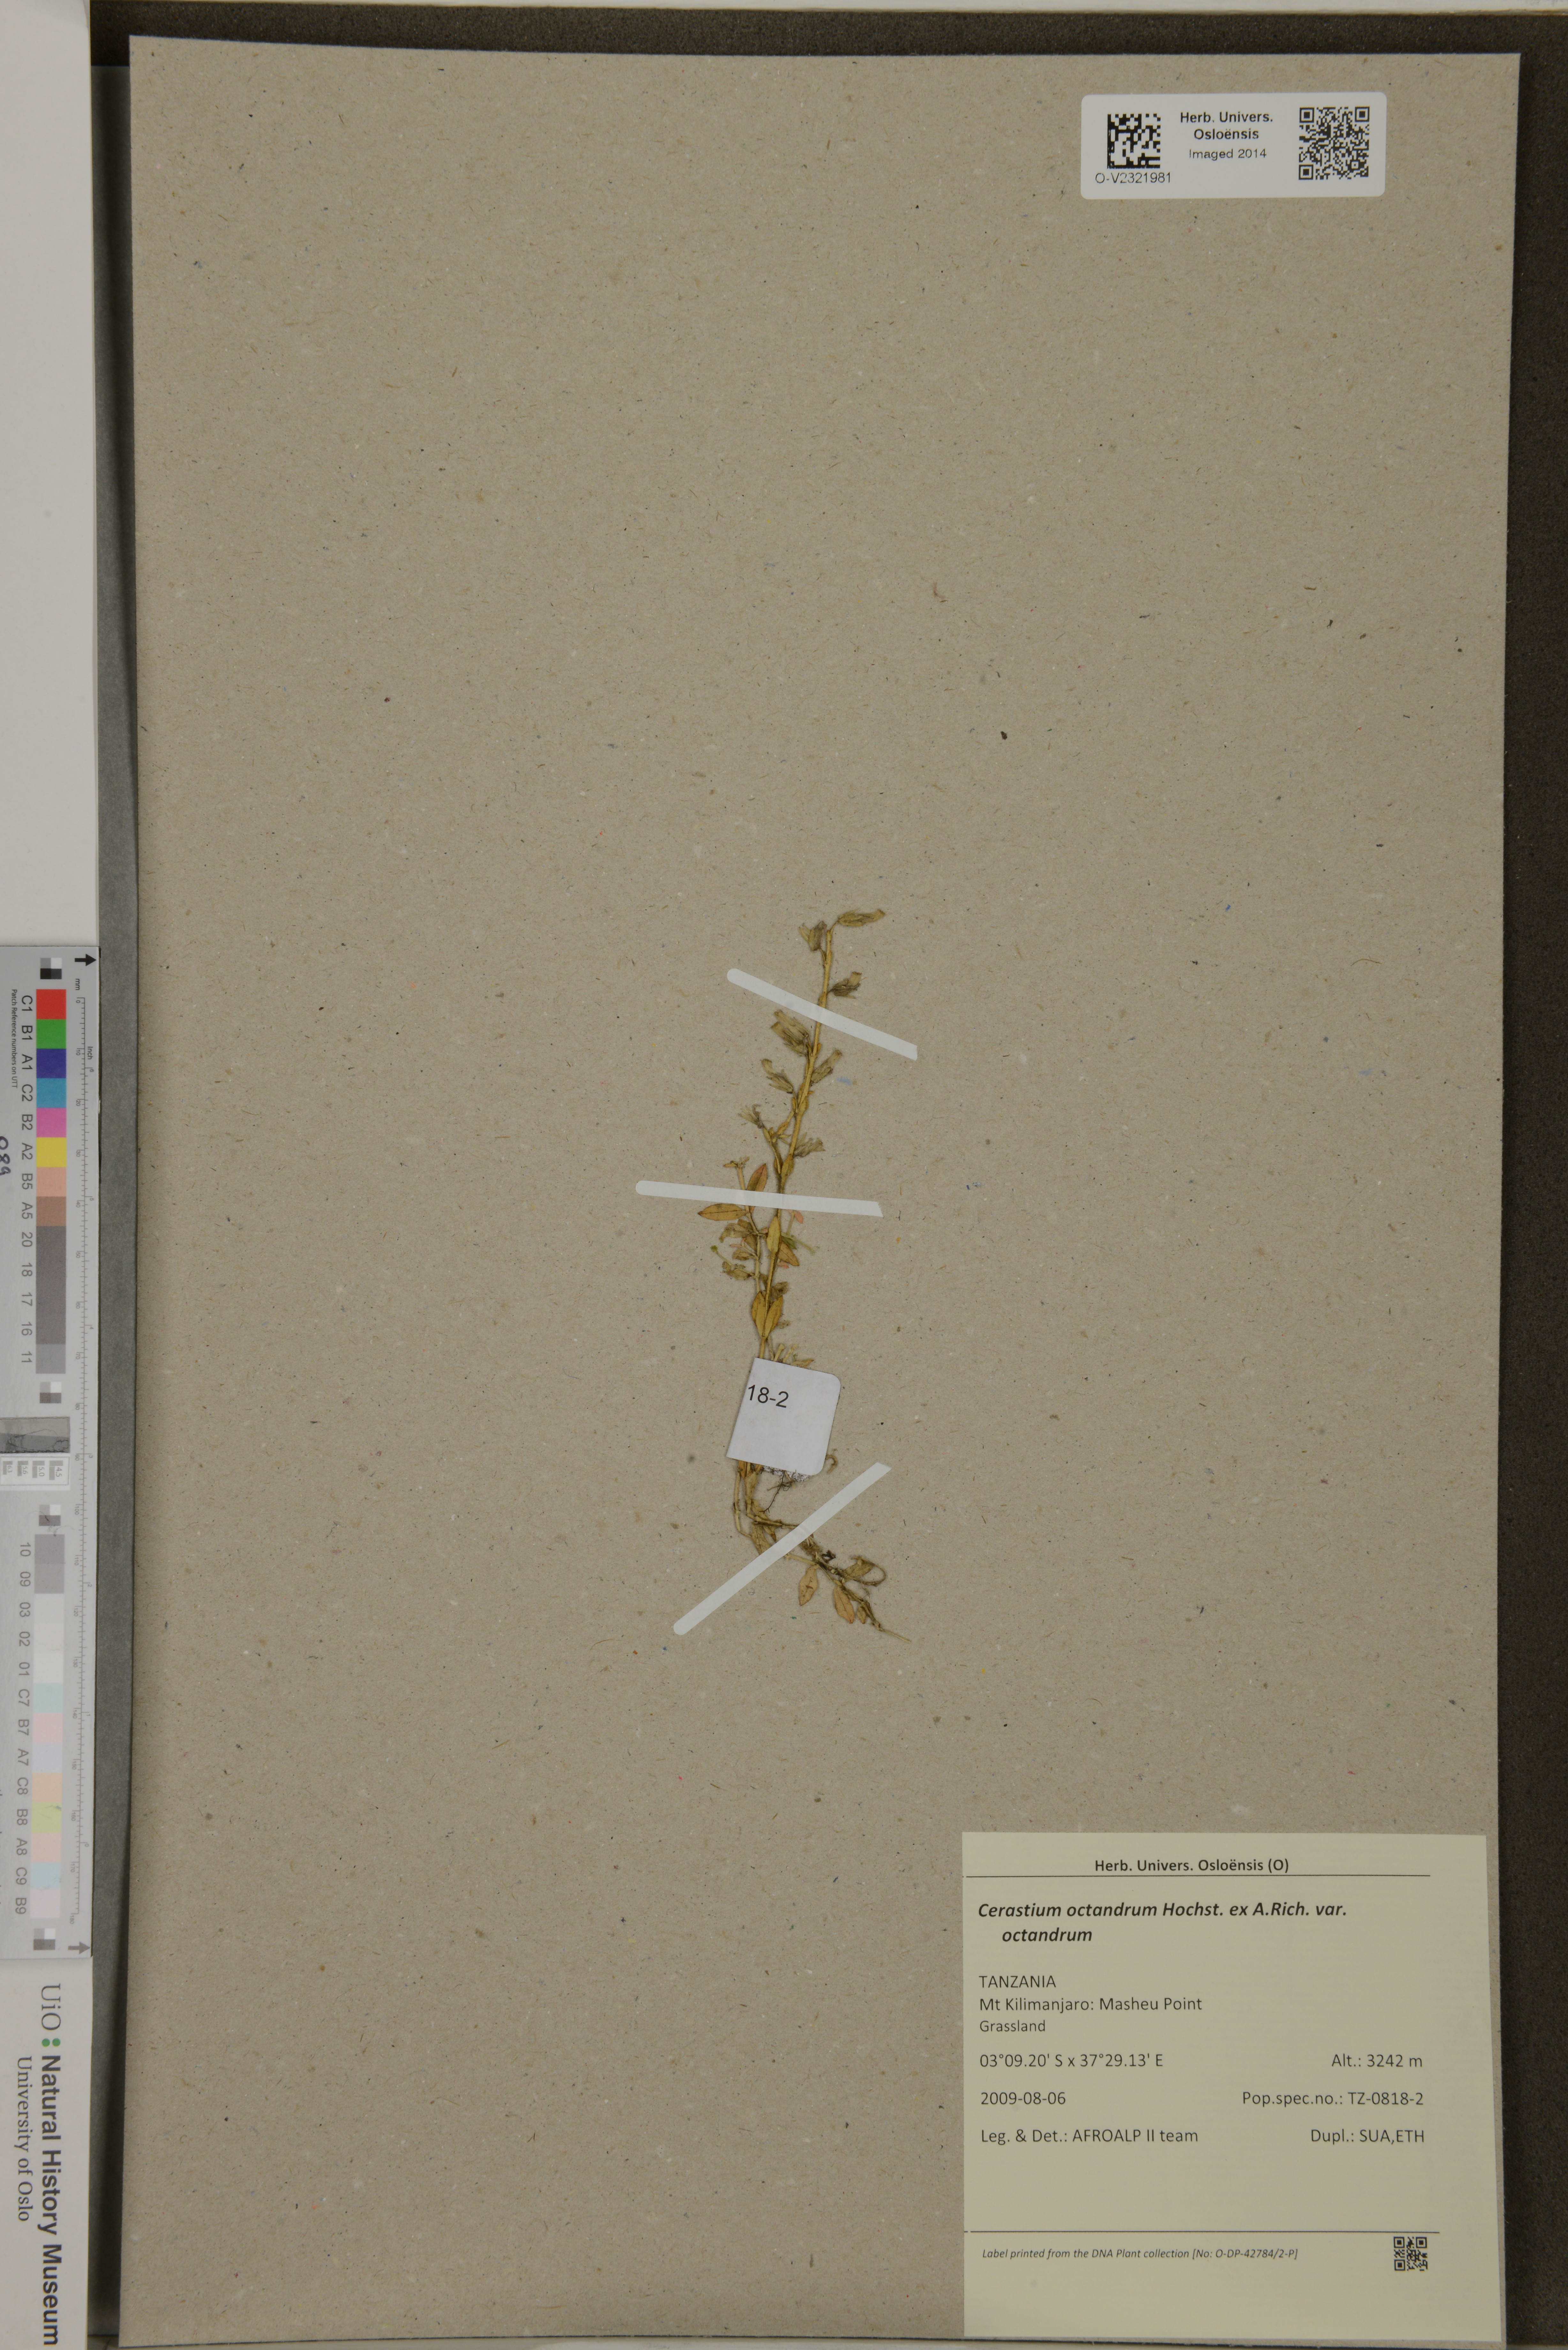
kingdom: Plantae
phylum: Tracheophyta
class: Magnoliopsida
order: Caryophyllales
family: Caryophyllaceae
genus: Cerastium
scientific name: Cerastium octandrum
